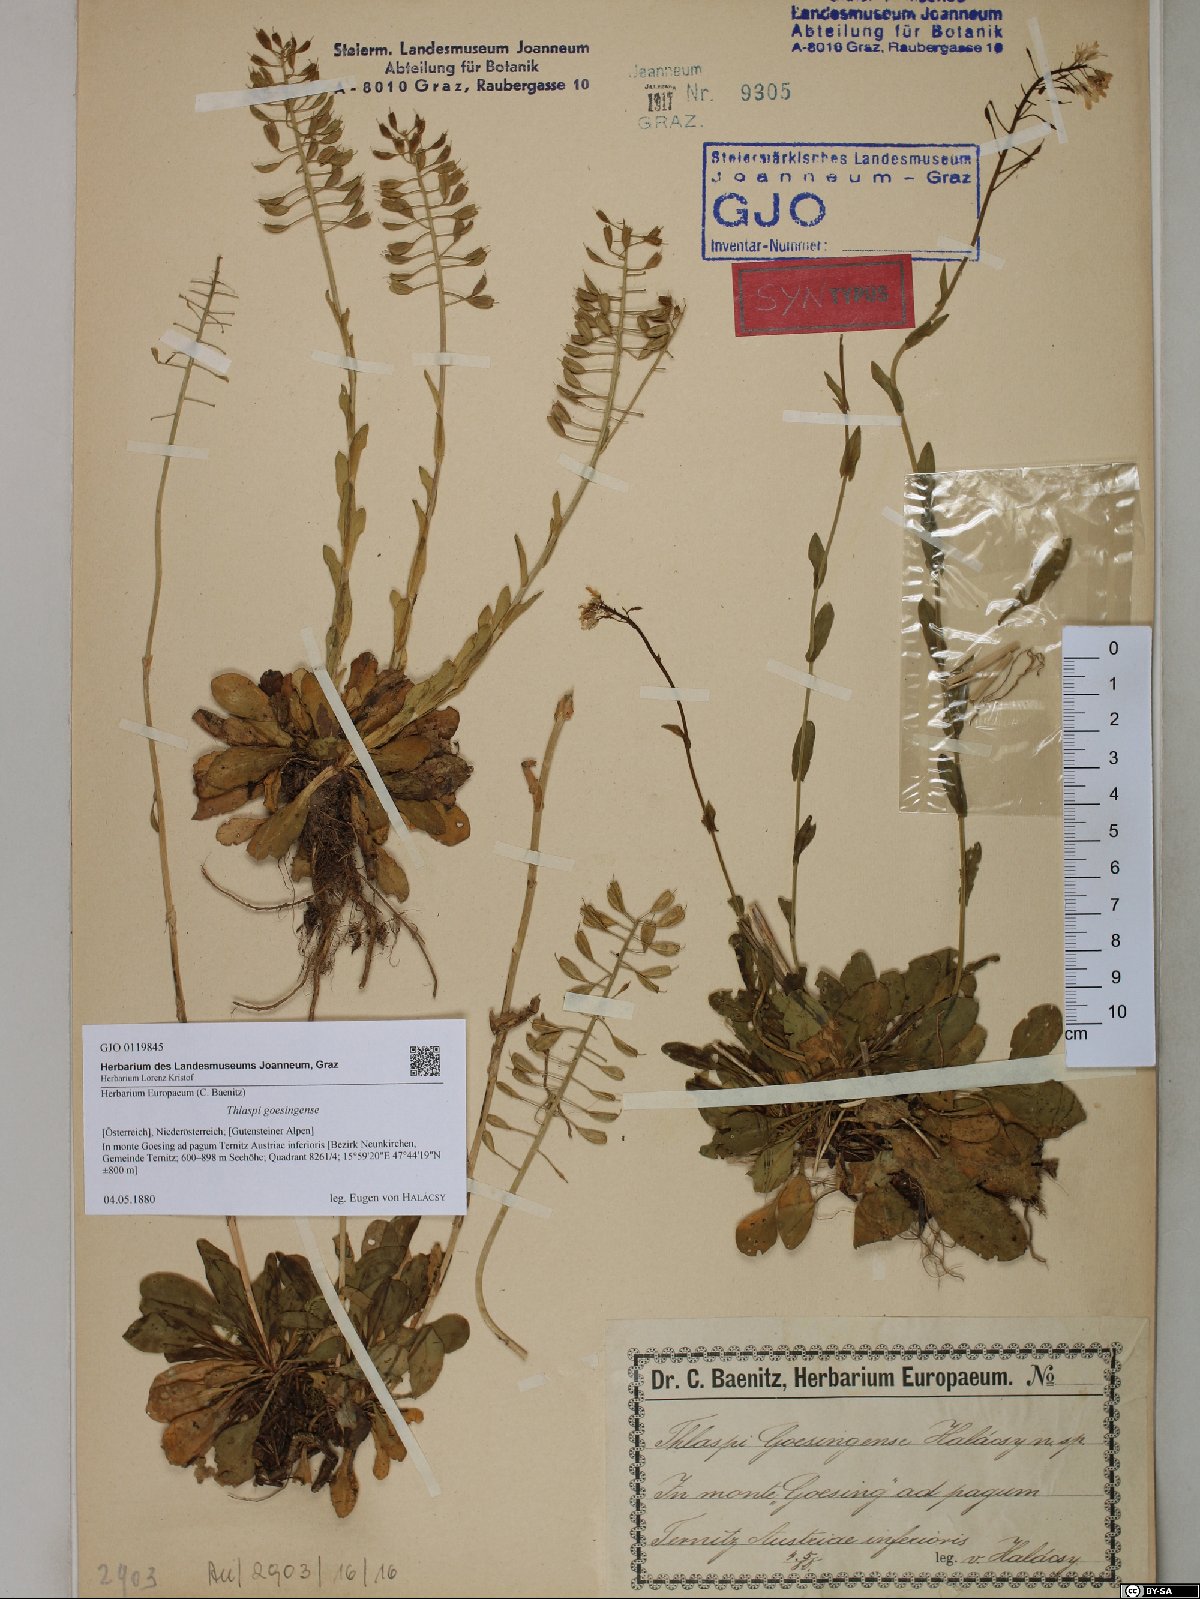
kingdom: Plantae
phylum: Tracheophyta
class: Magnoliopsida
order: Brassicales
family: Brassicaceae
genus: Noccaea
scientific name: Noccaea goesingensis
